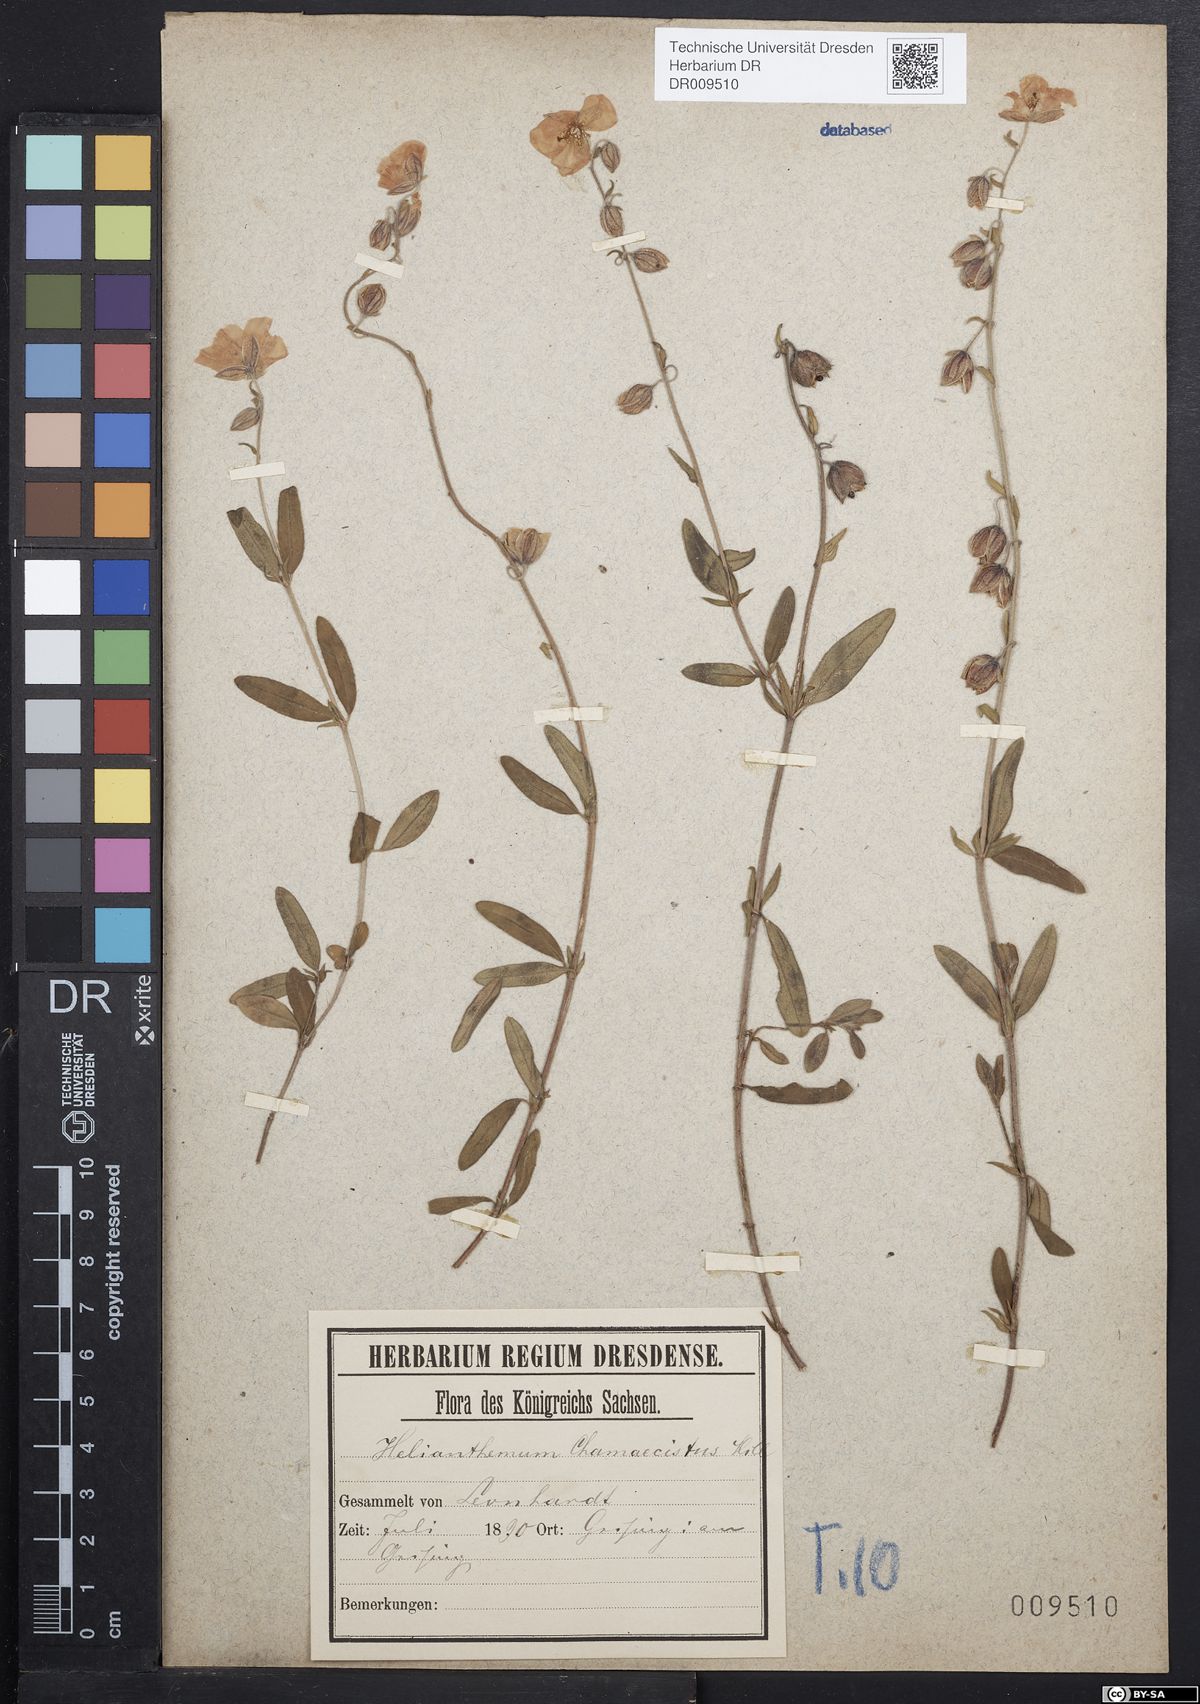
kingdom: Plantae
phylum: Tracheophyta
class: Magnoliopsida
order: Malvales
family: Cistaceae
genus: Helianthemum
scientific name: Helianthemum nummularium
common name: Common rock-rose
